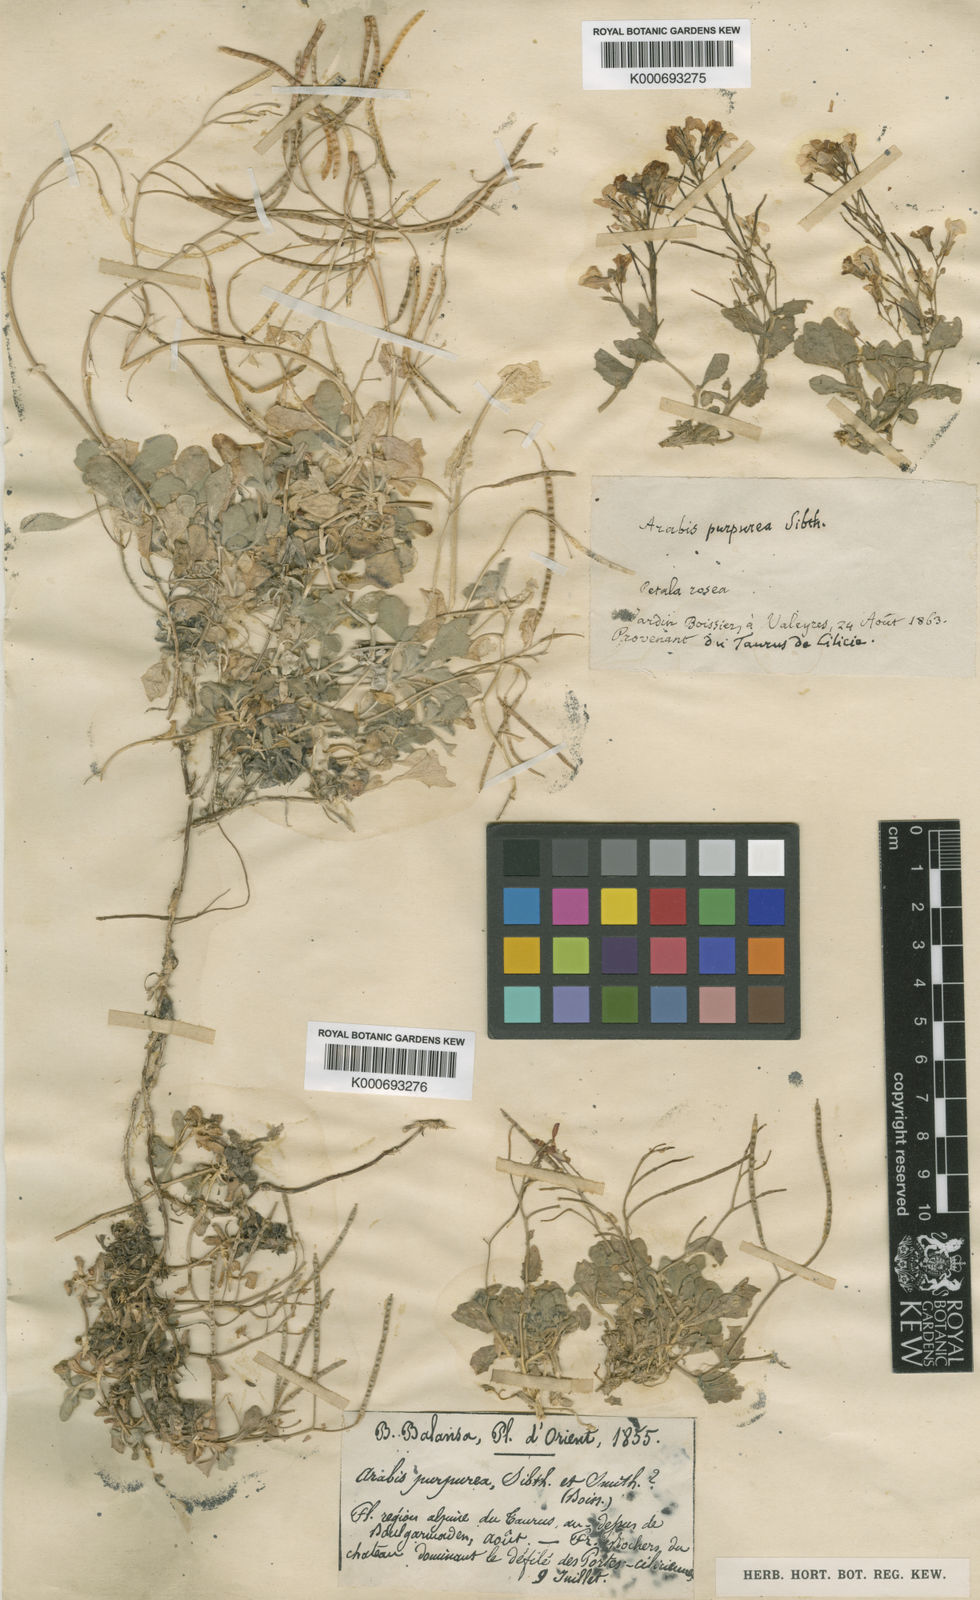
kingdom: Plantae
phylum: Tracheophyta
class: Magnoliopsida
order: Brassicales
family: Brassicaceae
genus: Arabis
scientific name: Arabis aubrietioides
